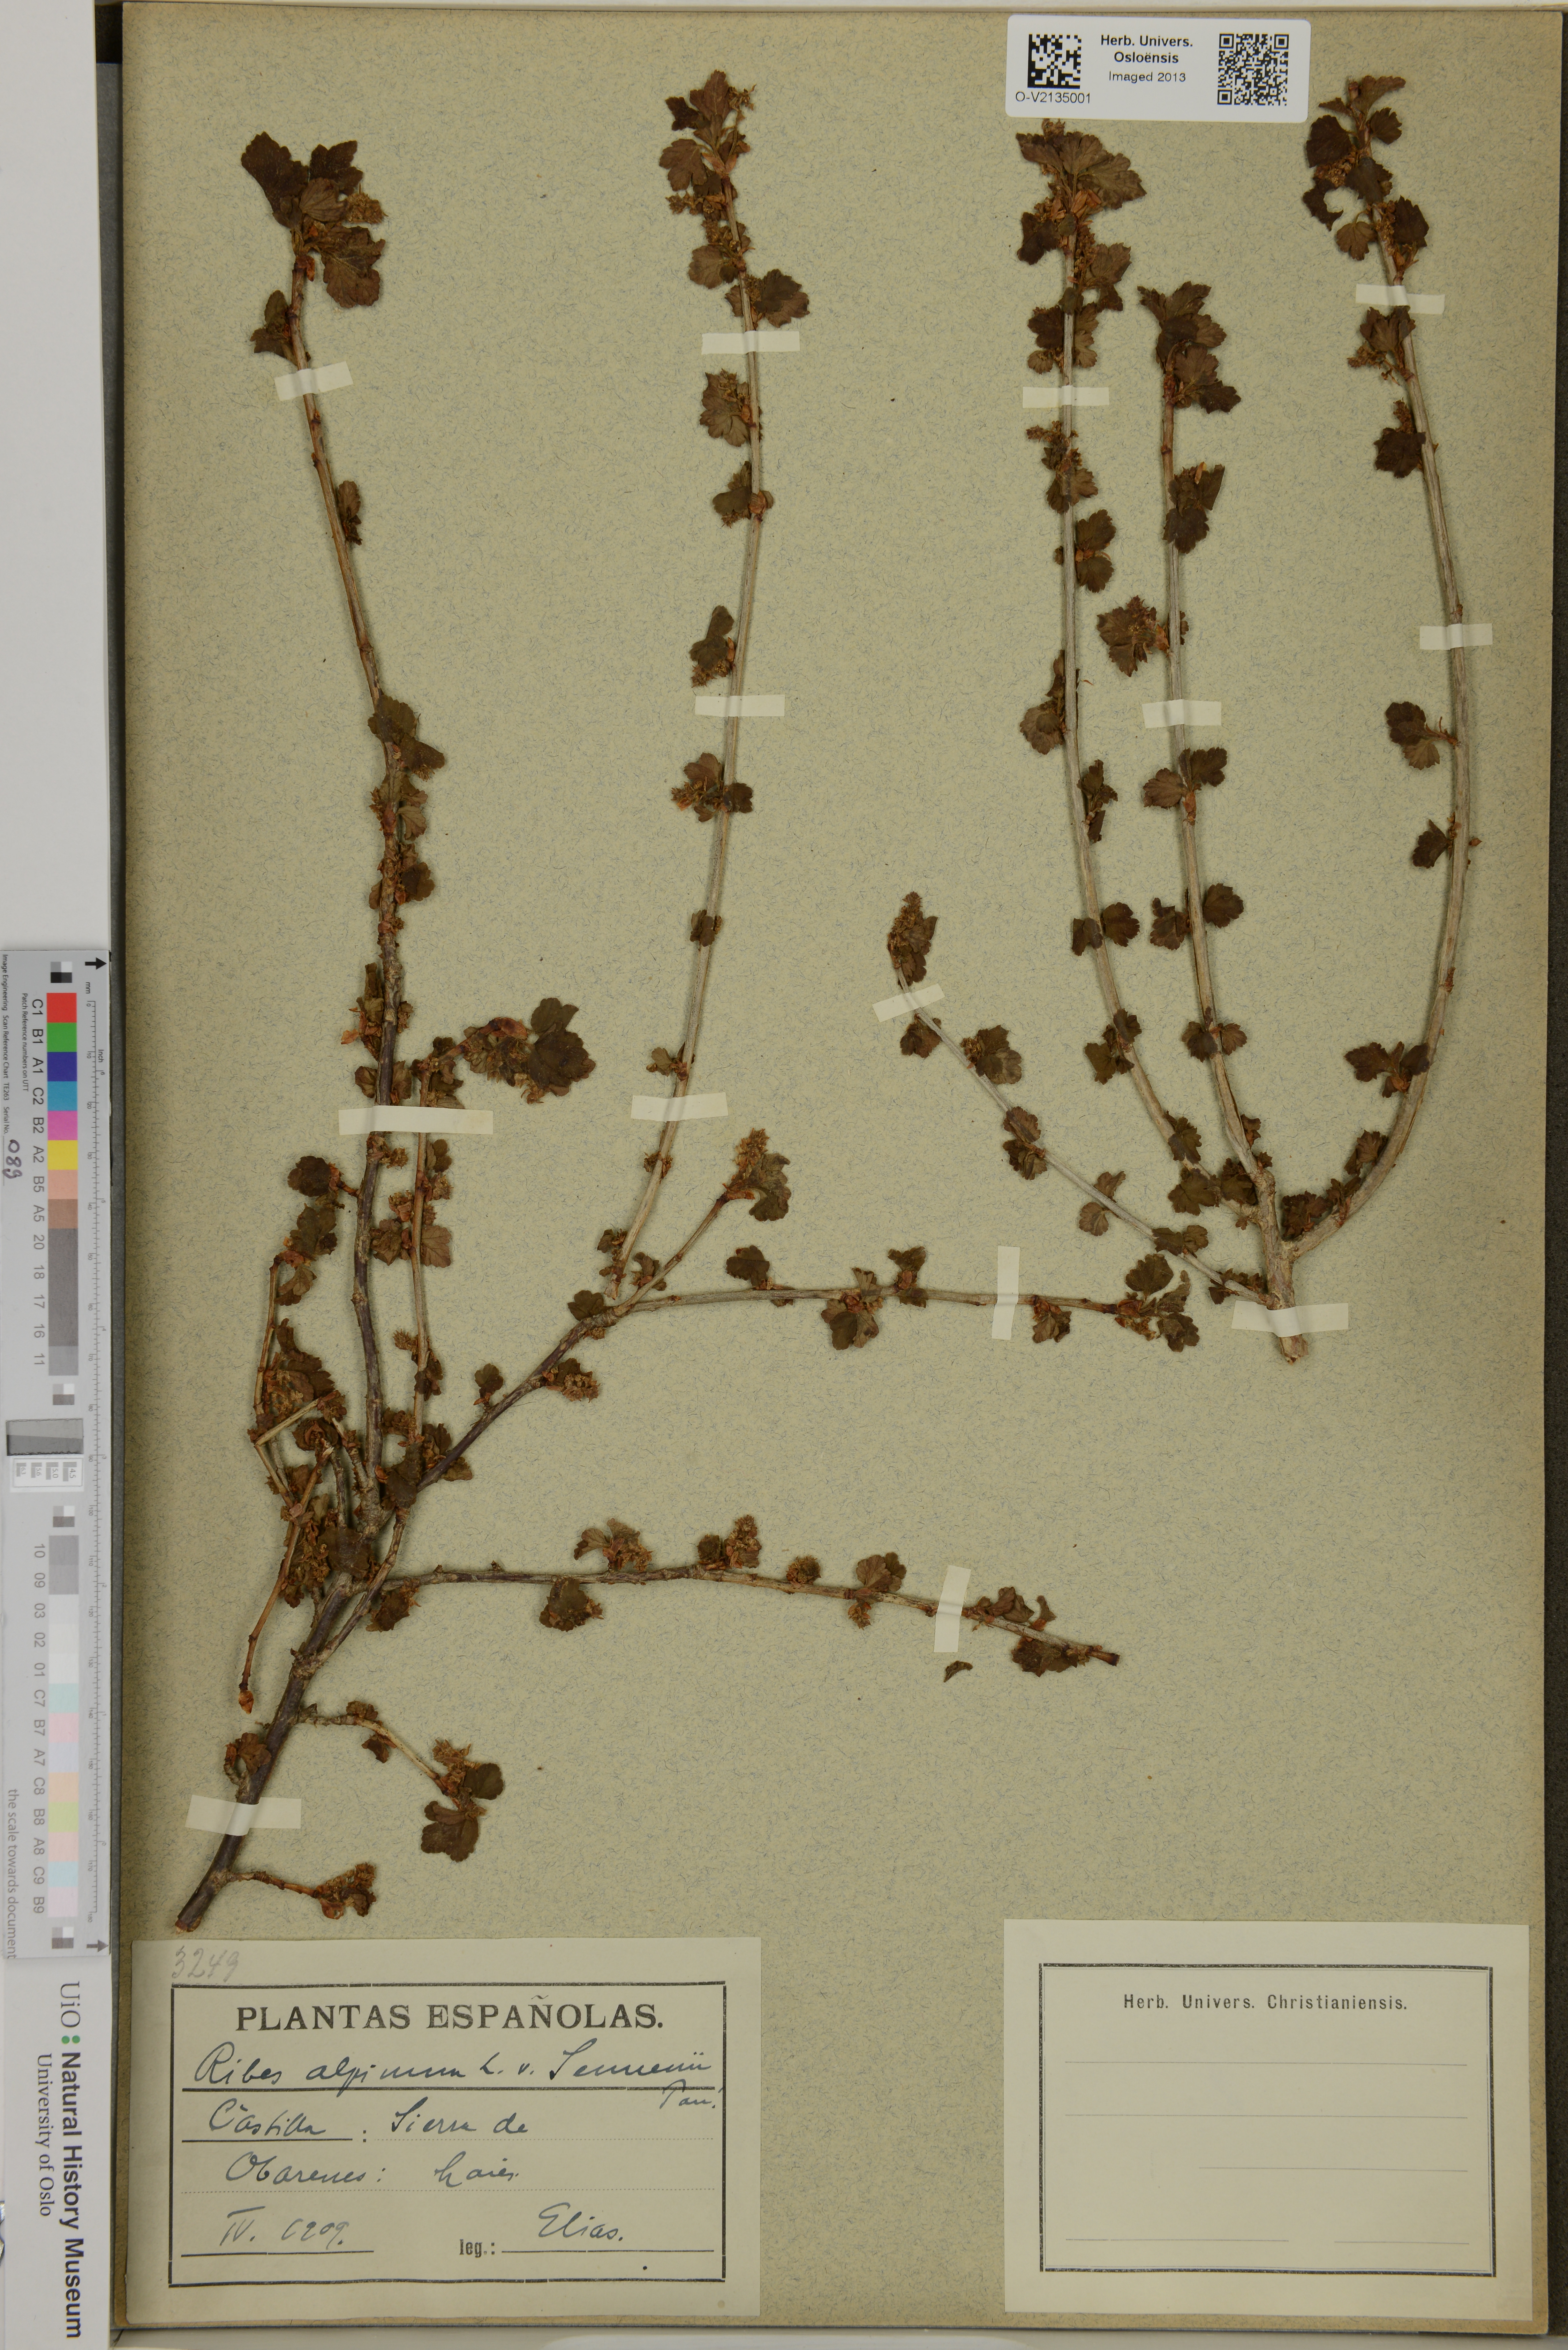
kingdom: Plantae
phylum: Tracheophyta
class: Magnoliopsida
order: Saxifragales
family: Grossulariaceae
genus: Ribes
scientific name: Ribes alpinum
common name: Alpine currant
